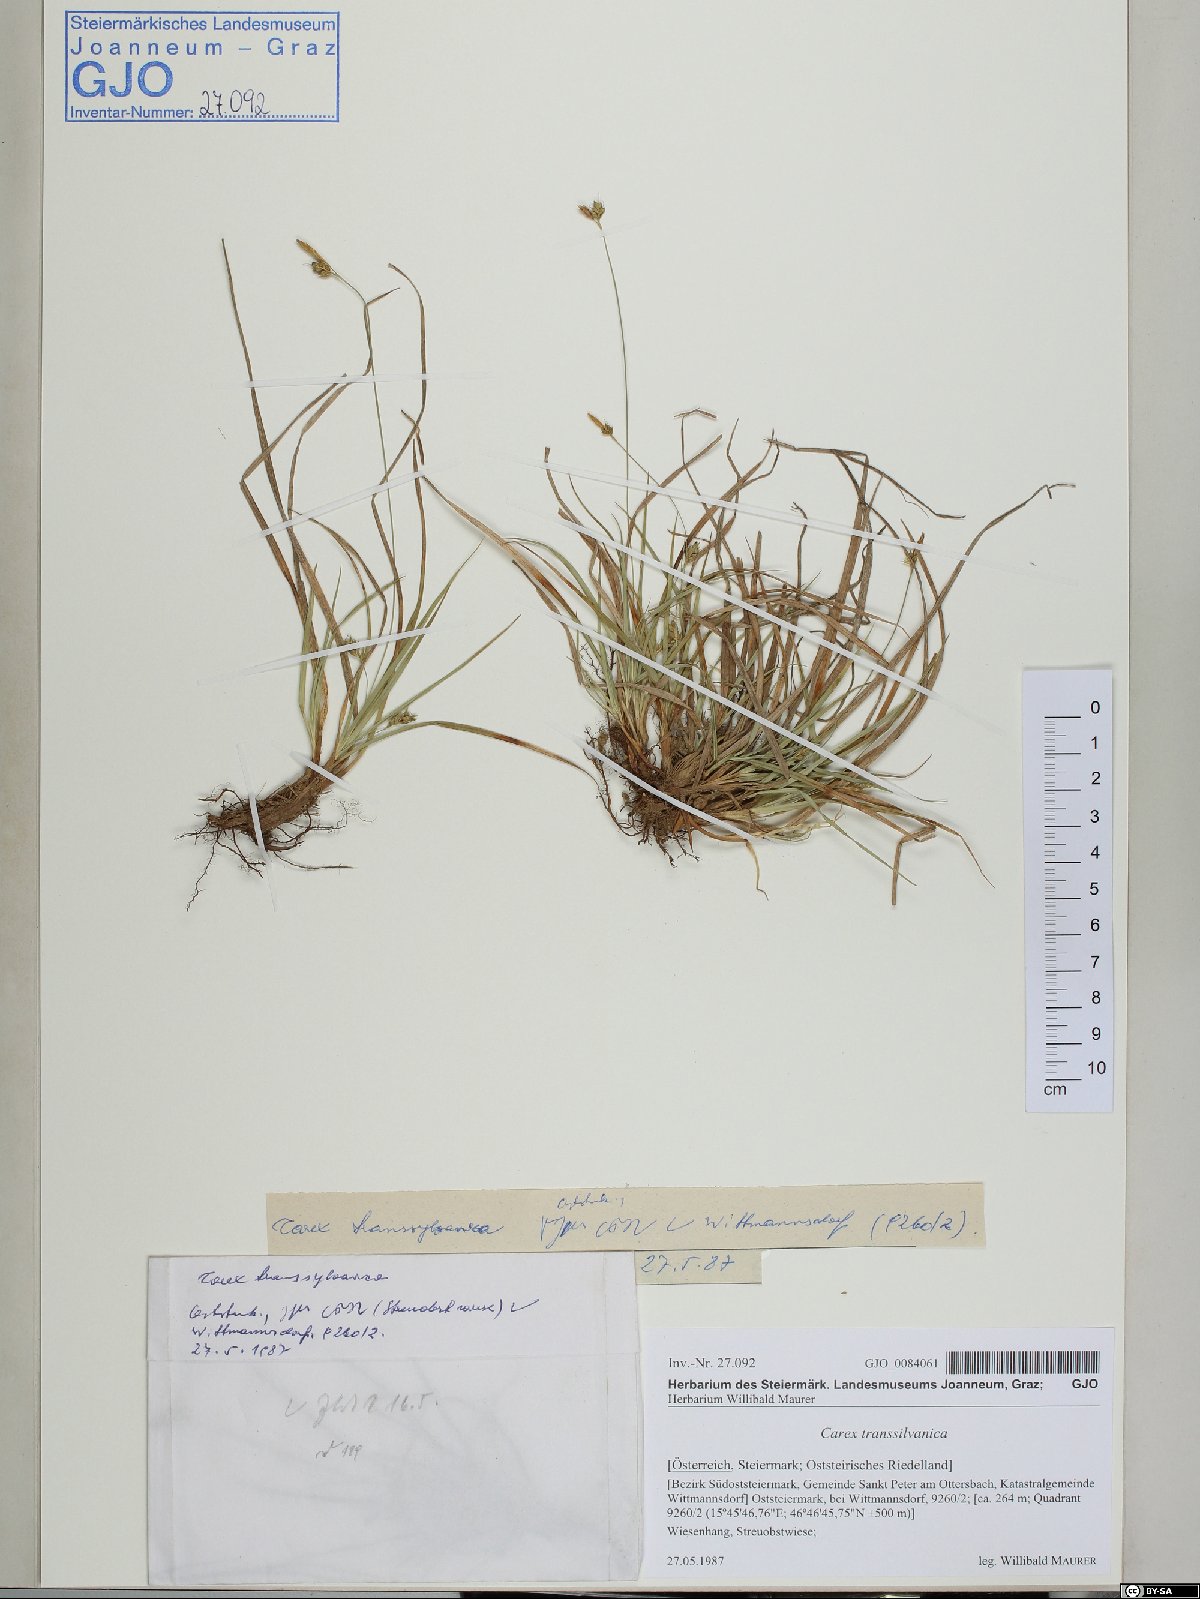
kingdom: Plantae
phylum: Tracheophyta
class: Liliopsida
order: Poales
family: Cyperaceae
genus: Carex
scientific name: Carex depressa
